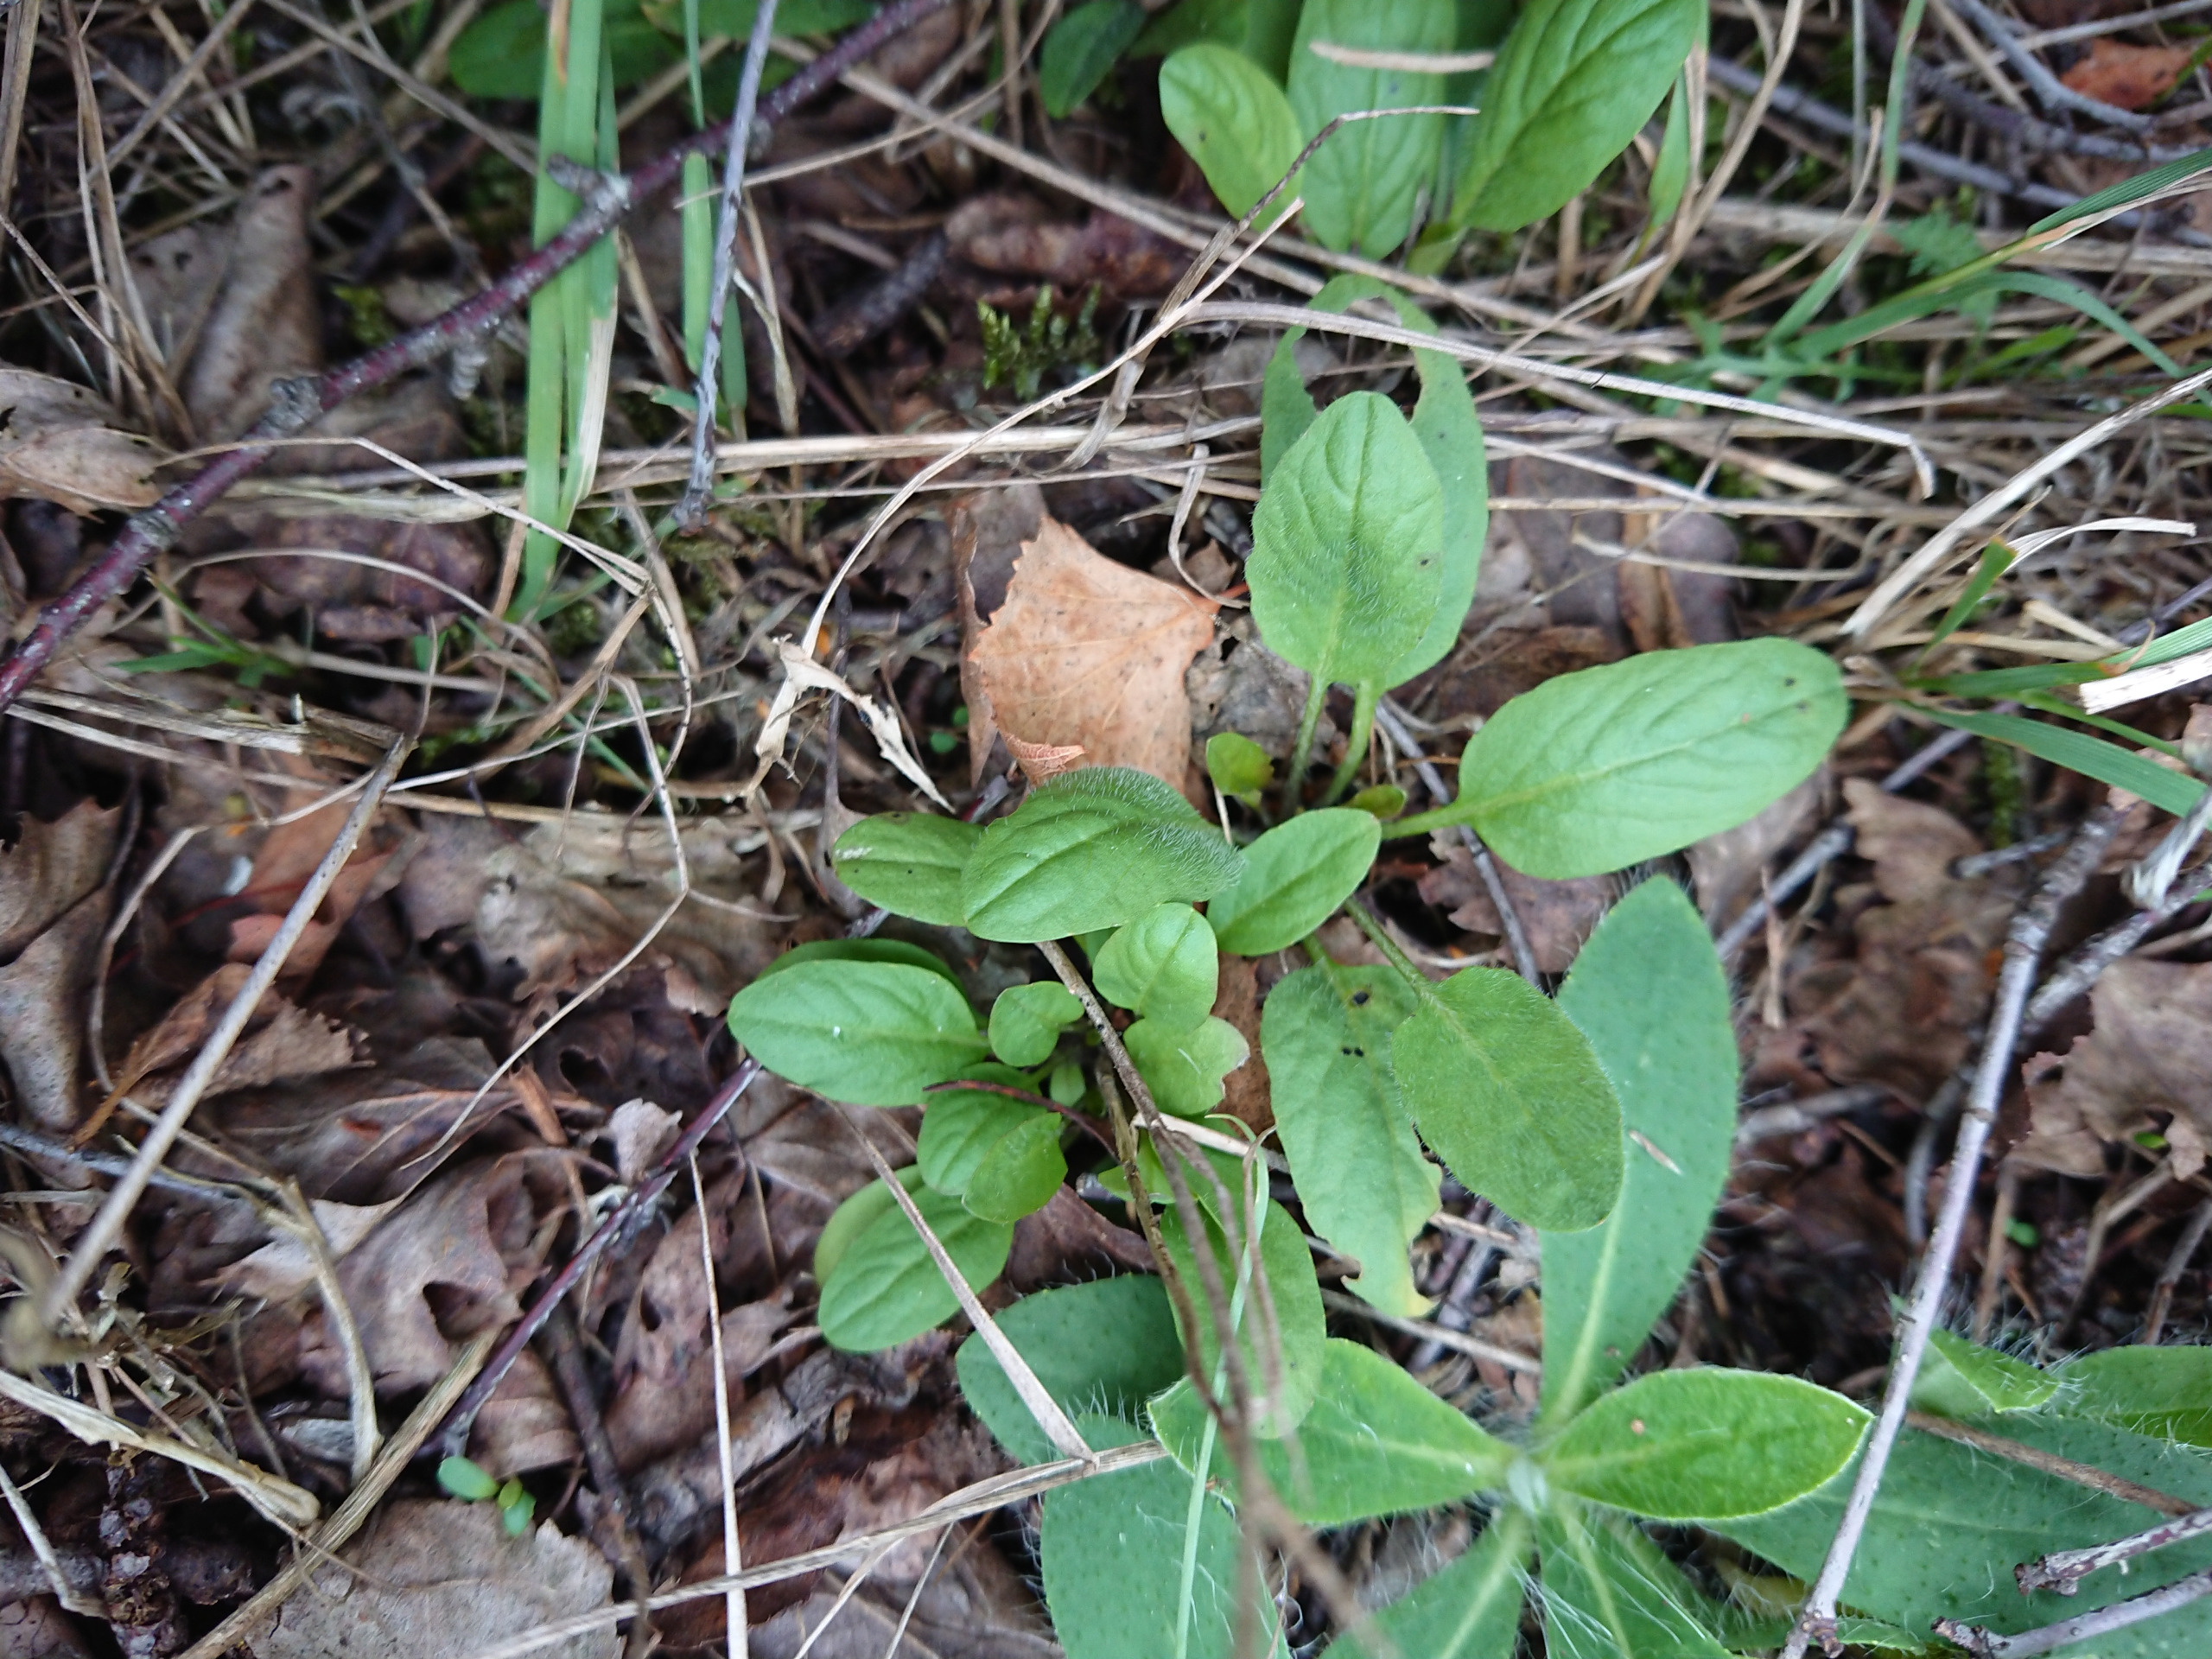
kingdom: Plantae
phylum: Tracheophyta
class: Magnoliopsida
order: Brassicales
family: Brassicaceae
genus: Lepidium
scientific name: Lepidium heterophyllum
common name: Forskelligbladet karse
